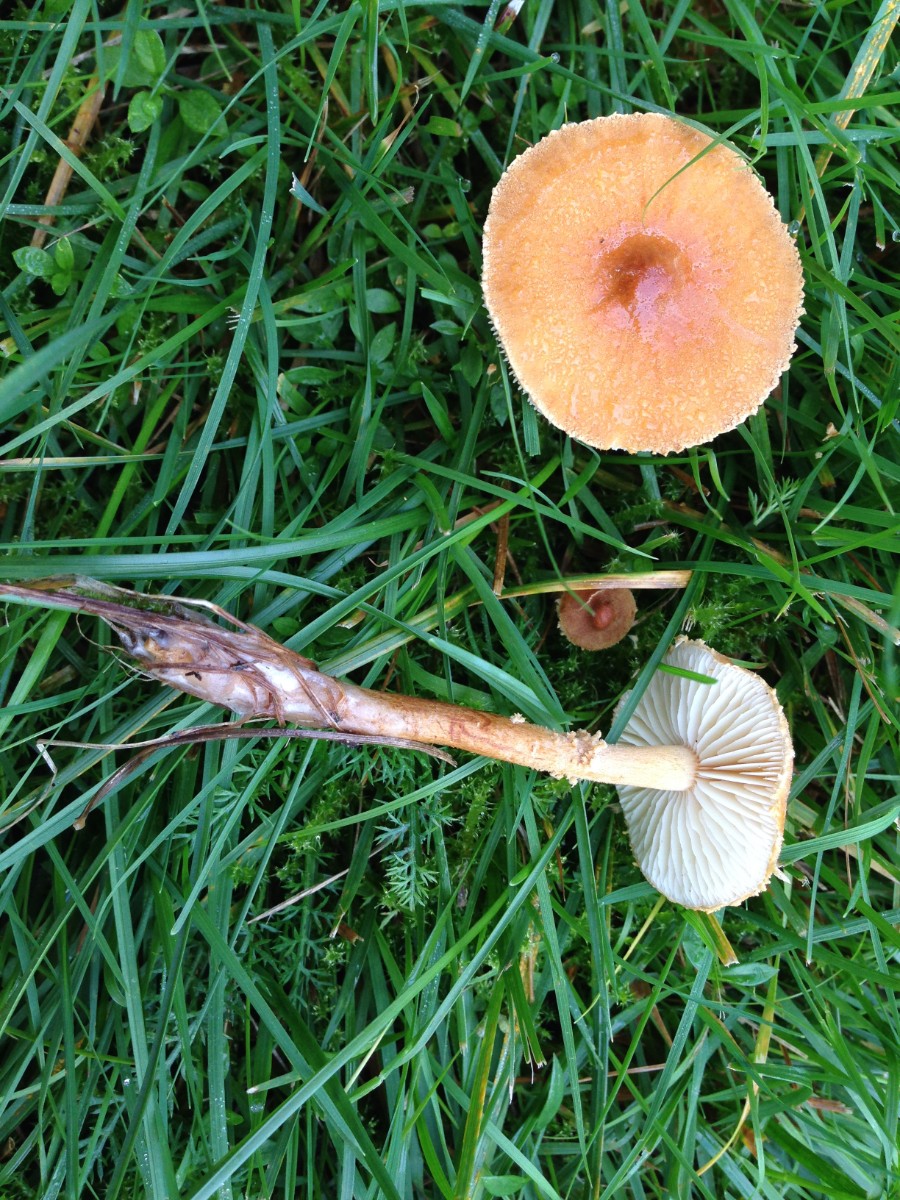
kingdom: Fungi
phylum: Basidiomycota
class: Agaricomycetes
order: Agaricales
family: Tricholomataceae
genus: Cystoderma
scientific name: Cystoderma amianthinum
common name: okkergul grynhat
